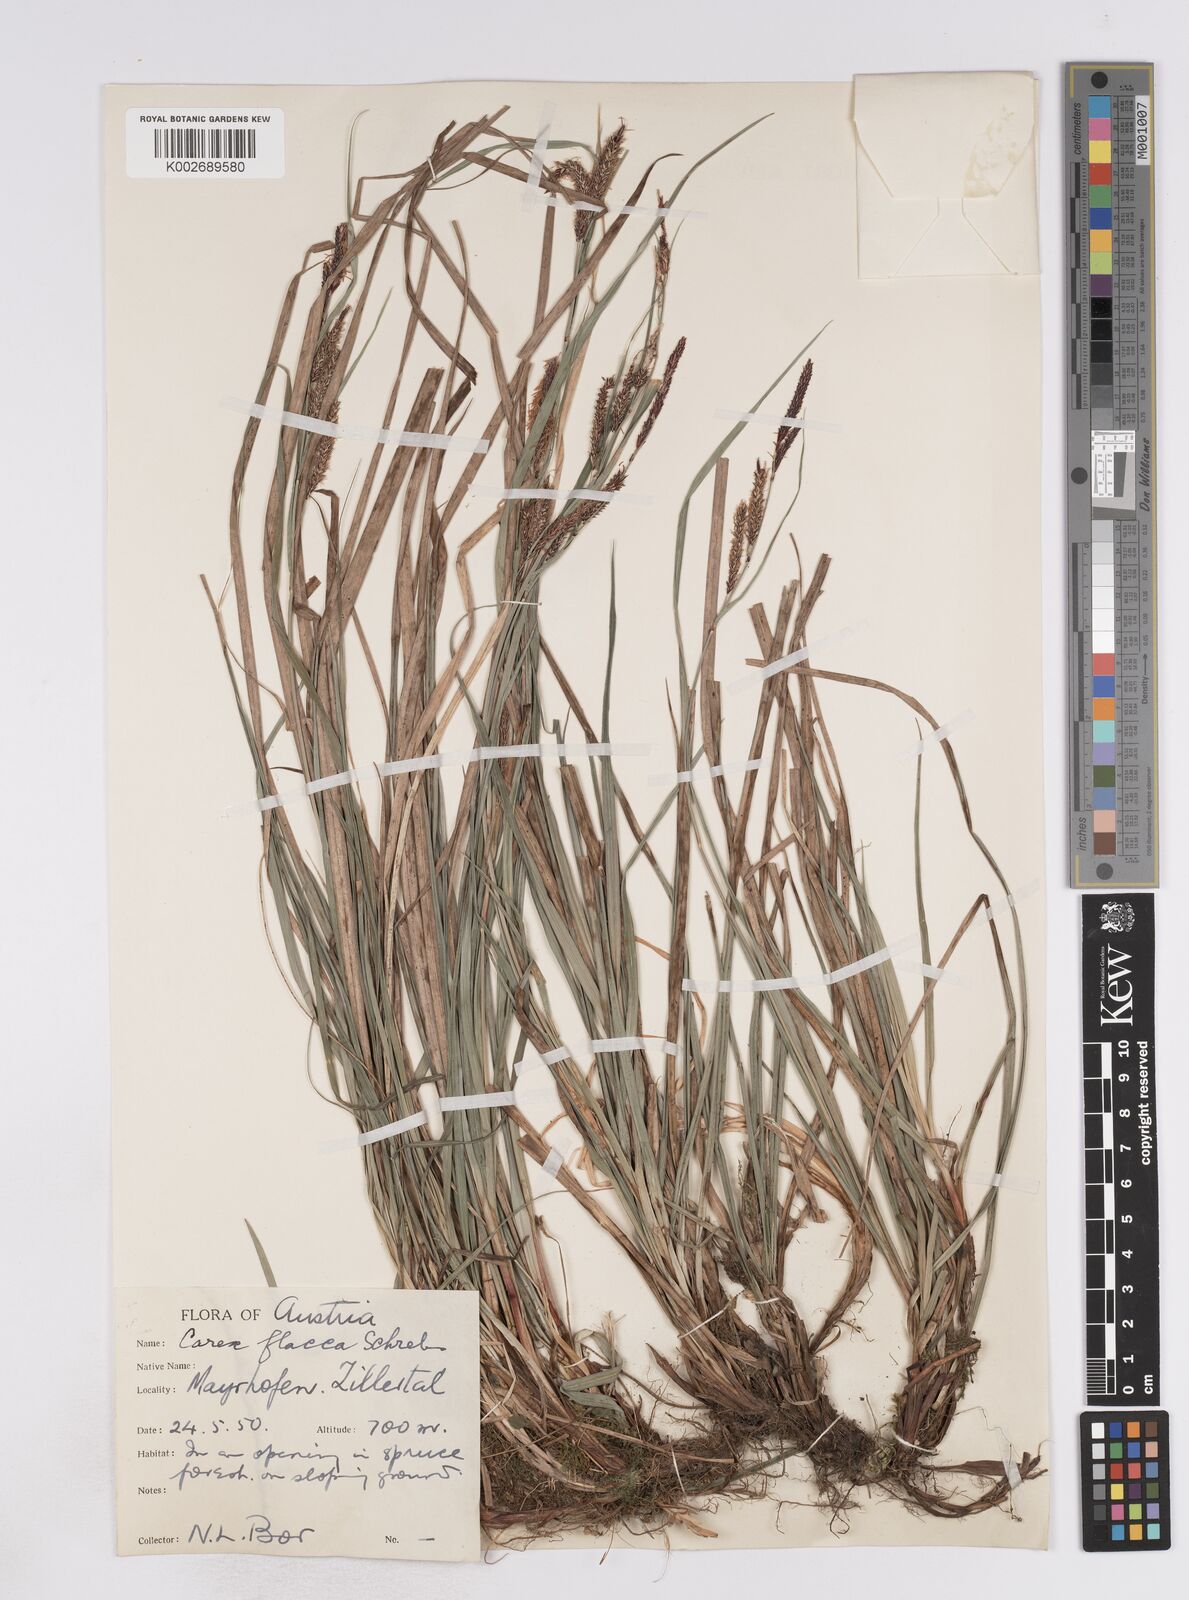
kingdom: Plantae
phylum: Tracheophyta
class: Liliopsida
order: Poales
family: Cyperaceae
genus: Carex
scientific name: Carex flacca
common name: Glaucous sedge
